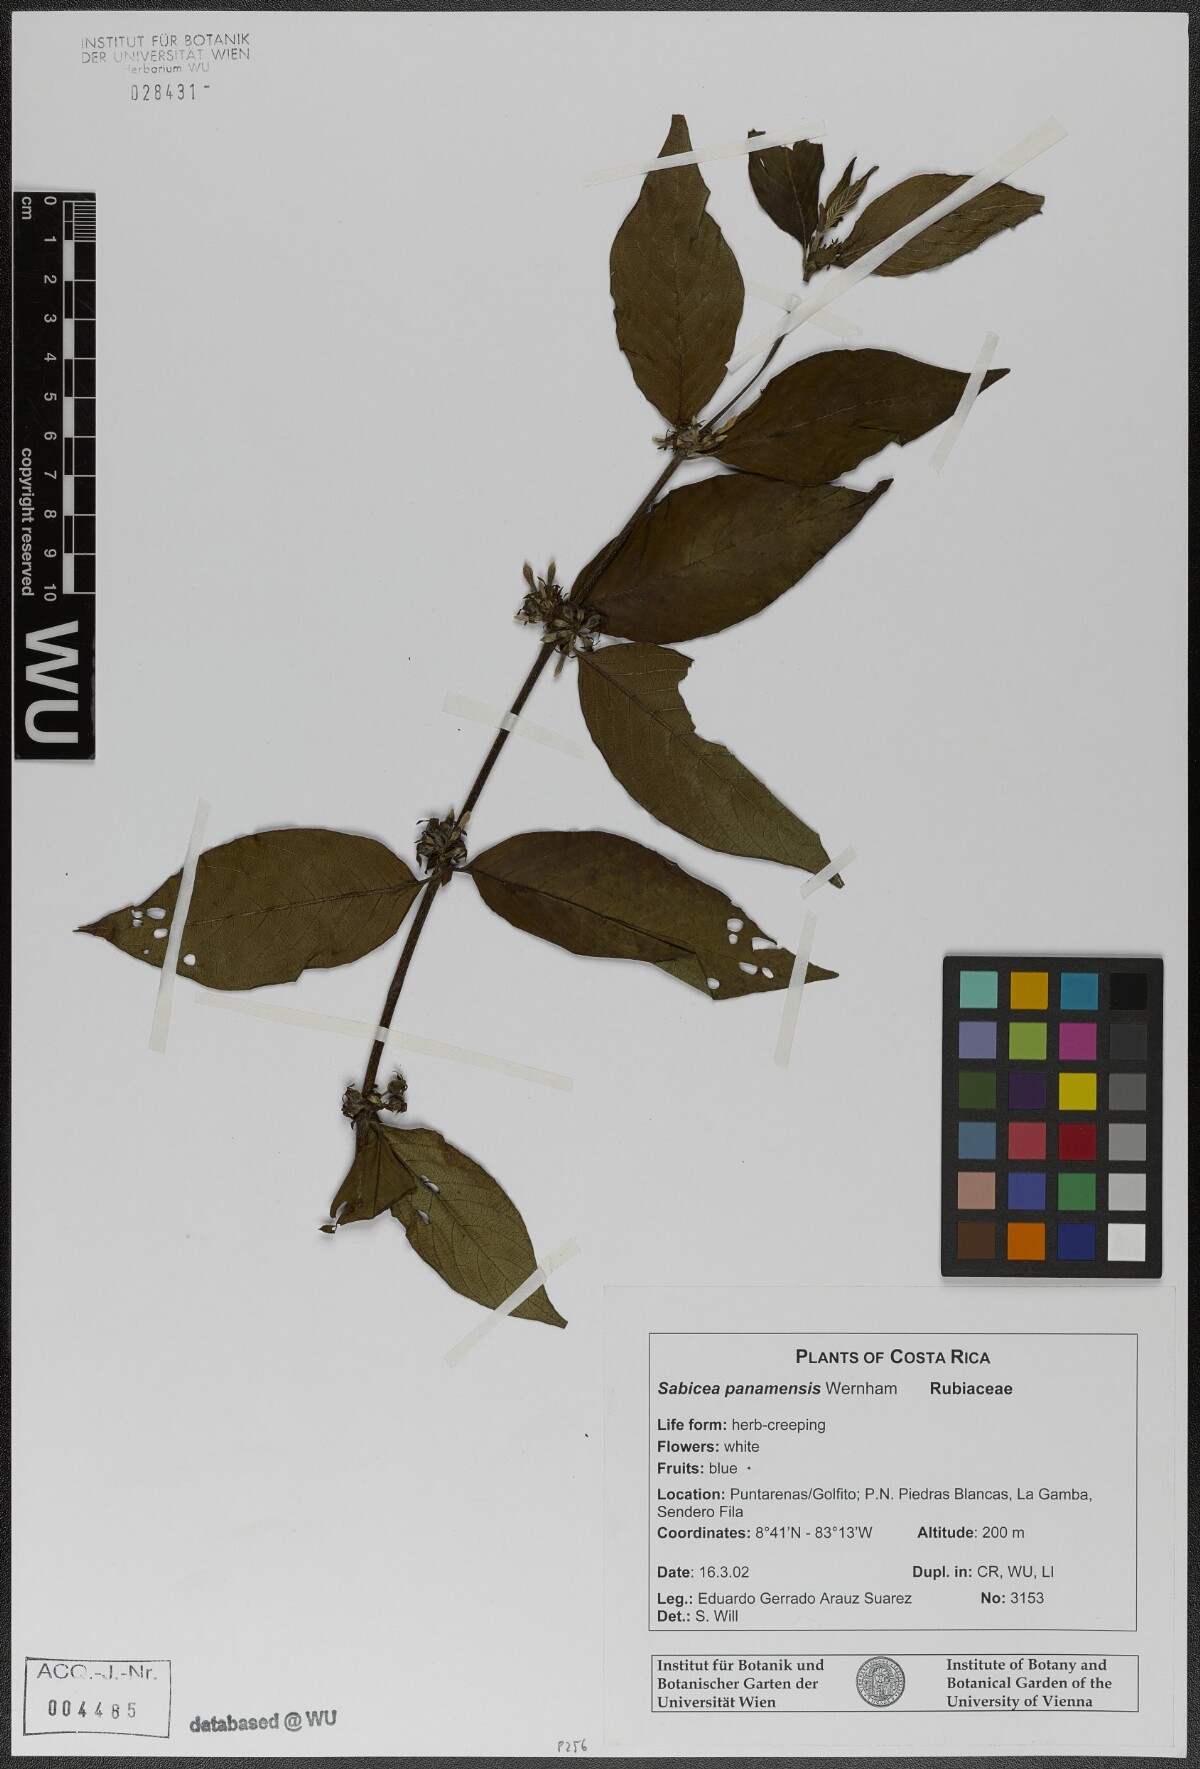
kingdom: Plantae
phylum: Tracheophyta
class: Magnoliopsida
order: Gentianales
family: Rubiaceae
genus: Sabicea
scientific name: Sabicea panamensis
